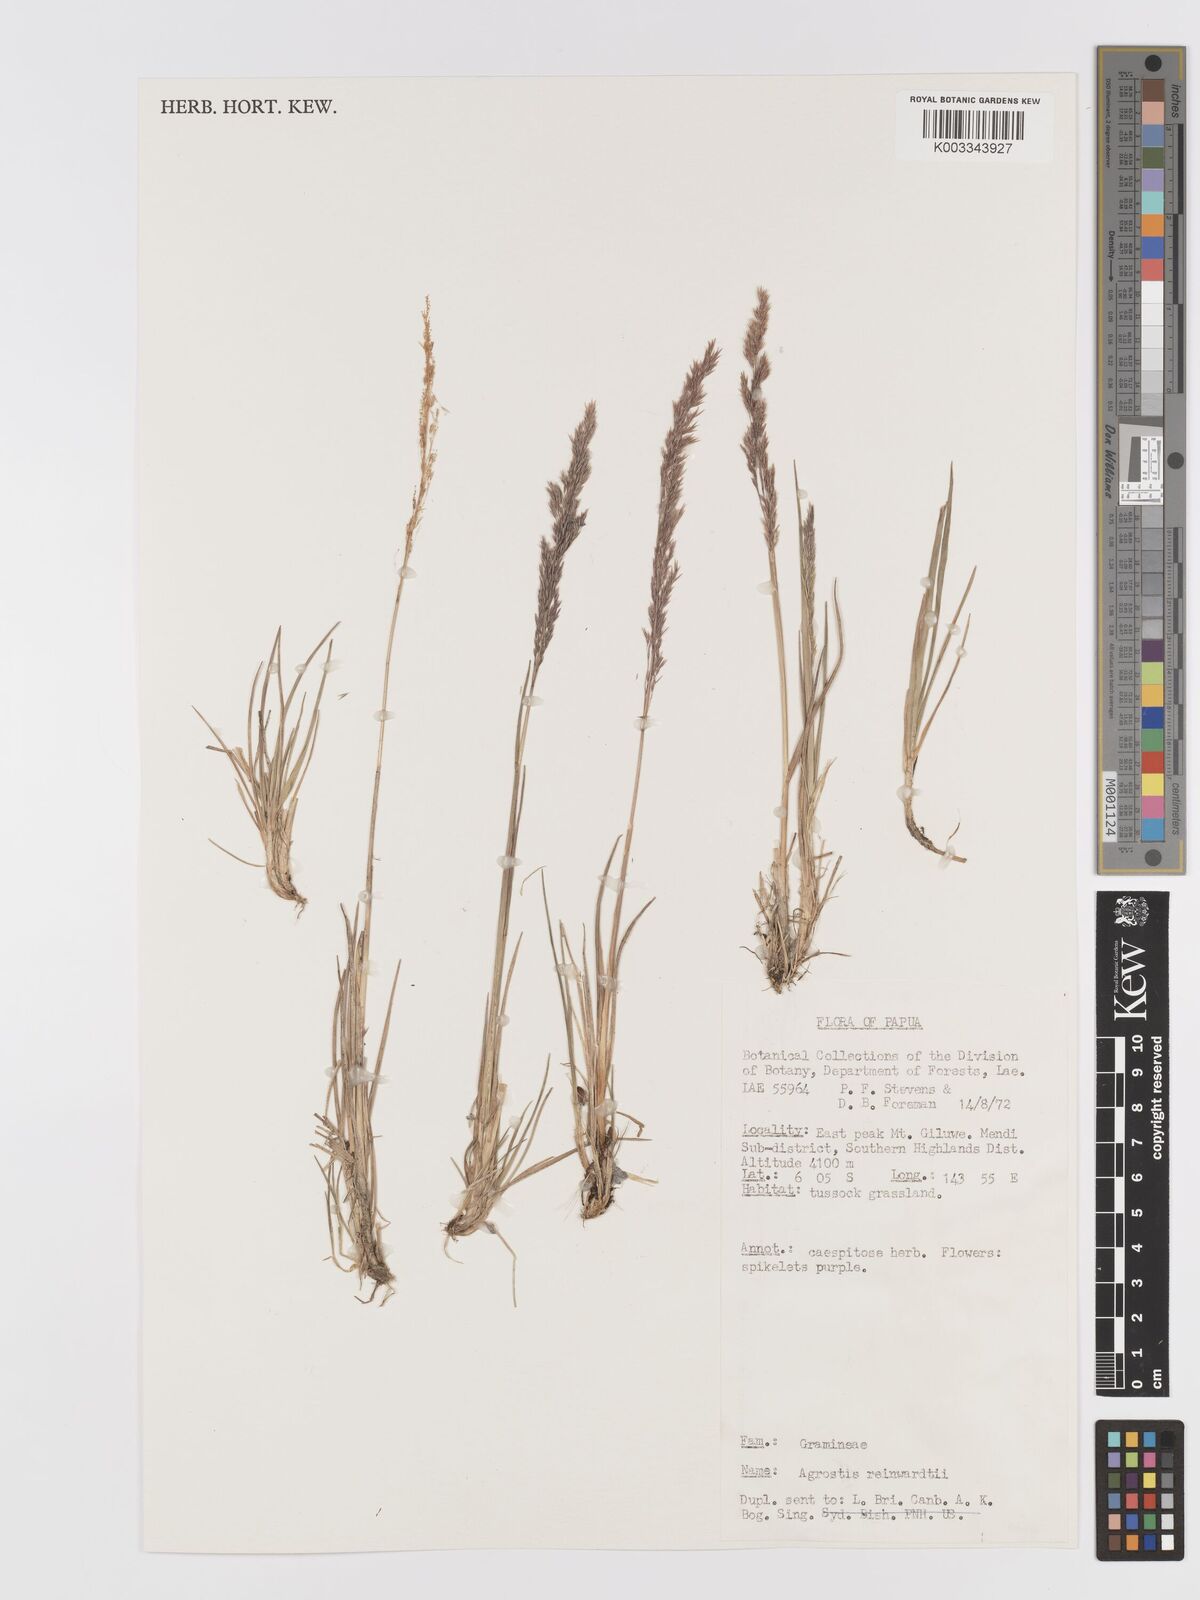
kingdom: Plantae
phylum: Tracheophyta
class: Liliopsida
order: Poales
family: Poaceae
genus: Agrostis
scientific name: Agrostis infirma
